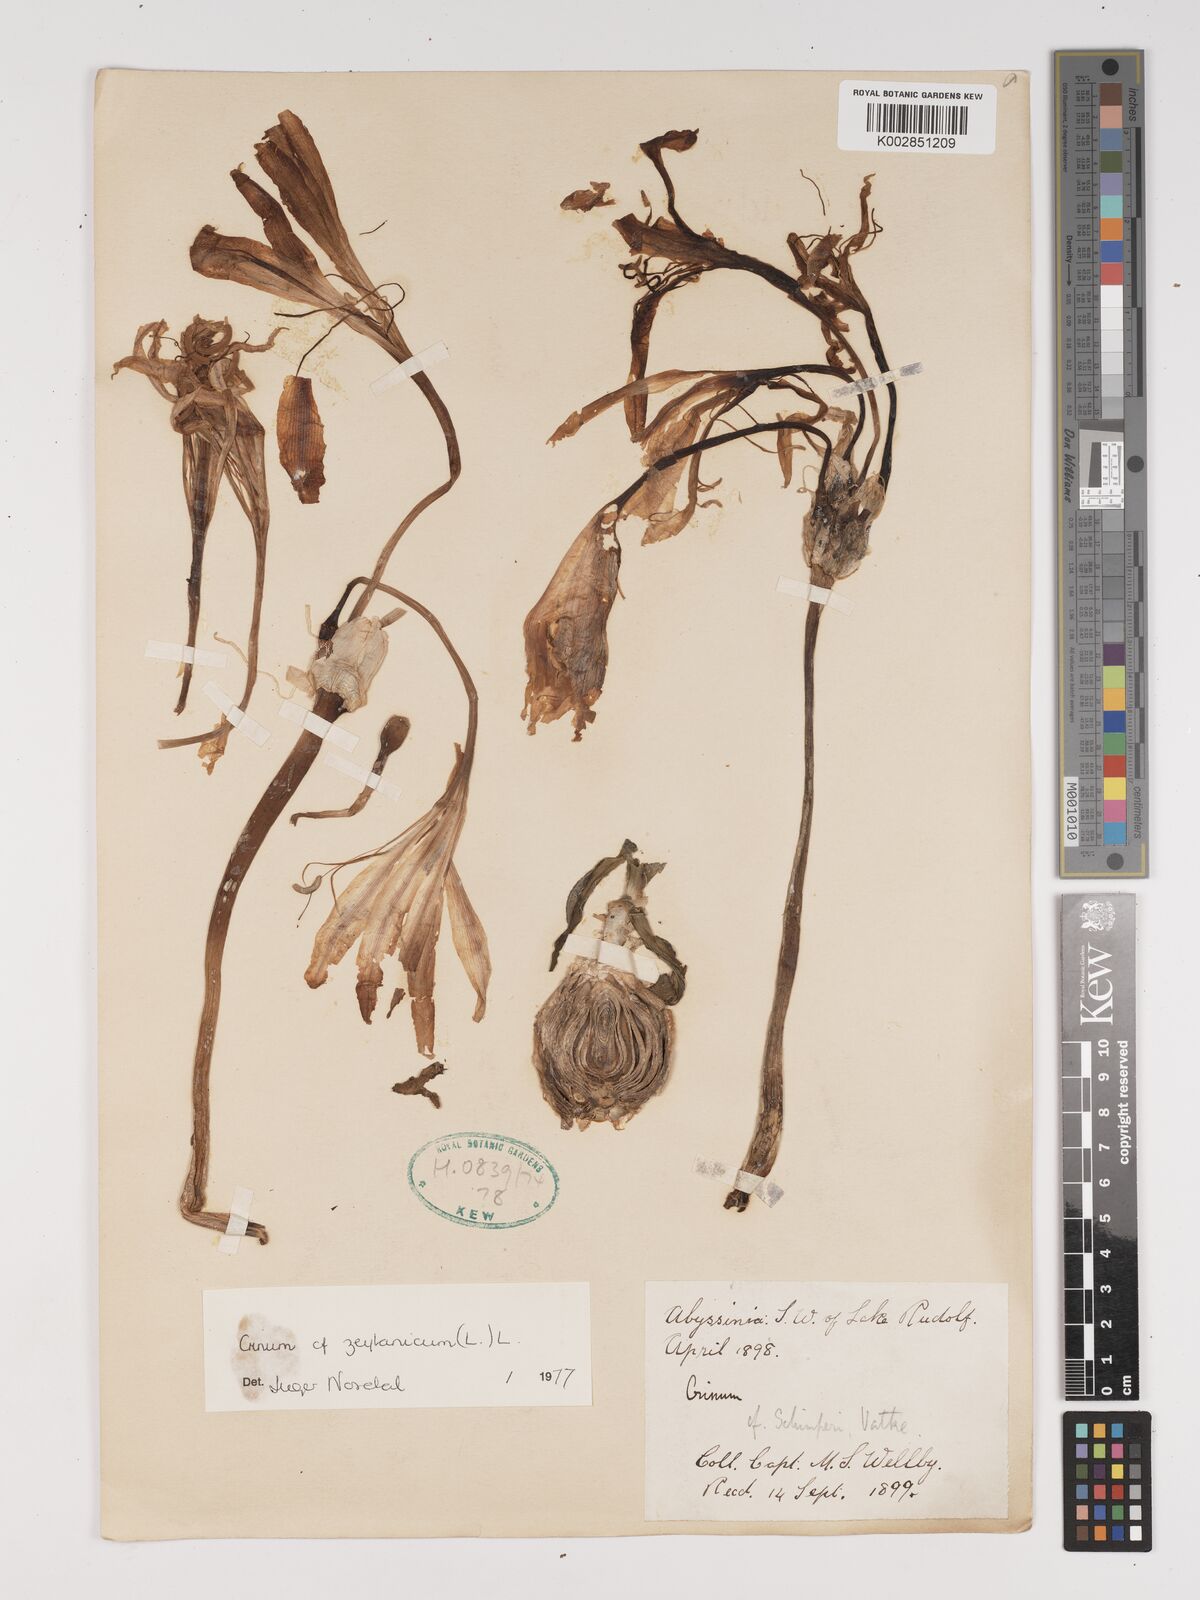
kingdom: Plantae
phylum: Tracheophyta
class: Liliopsida
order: Asparagales
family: Amaryllidaceae
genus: Crinum
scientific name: Crinum zeylanicum
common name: Ceylon swamplily
